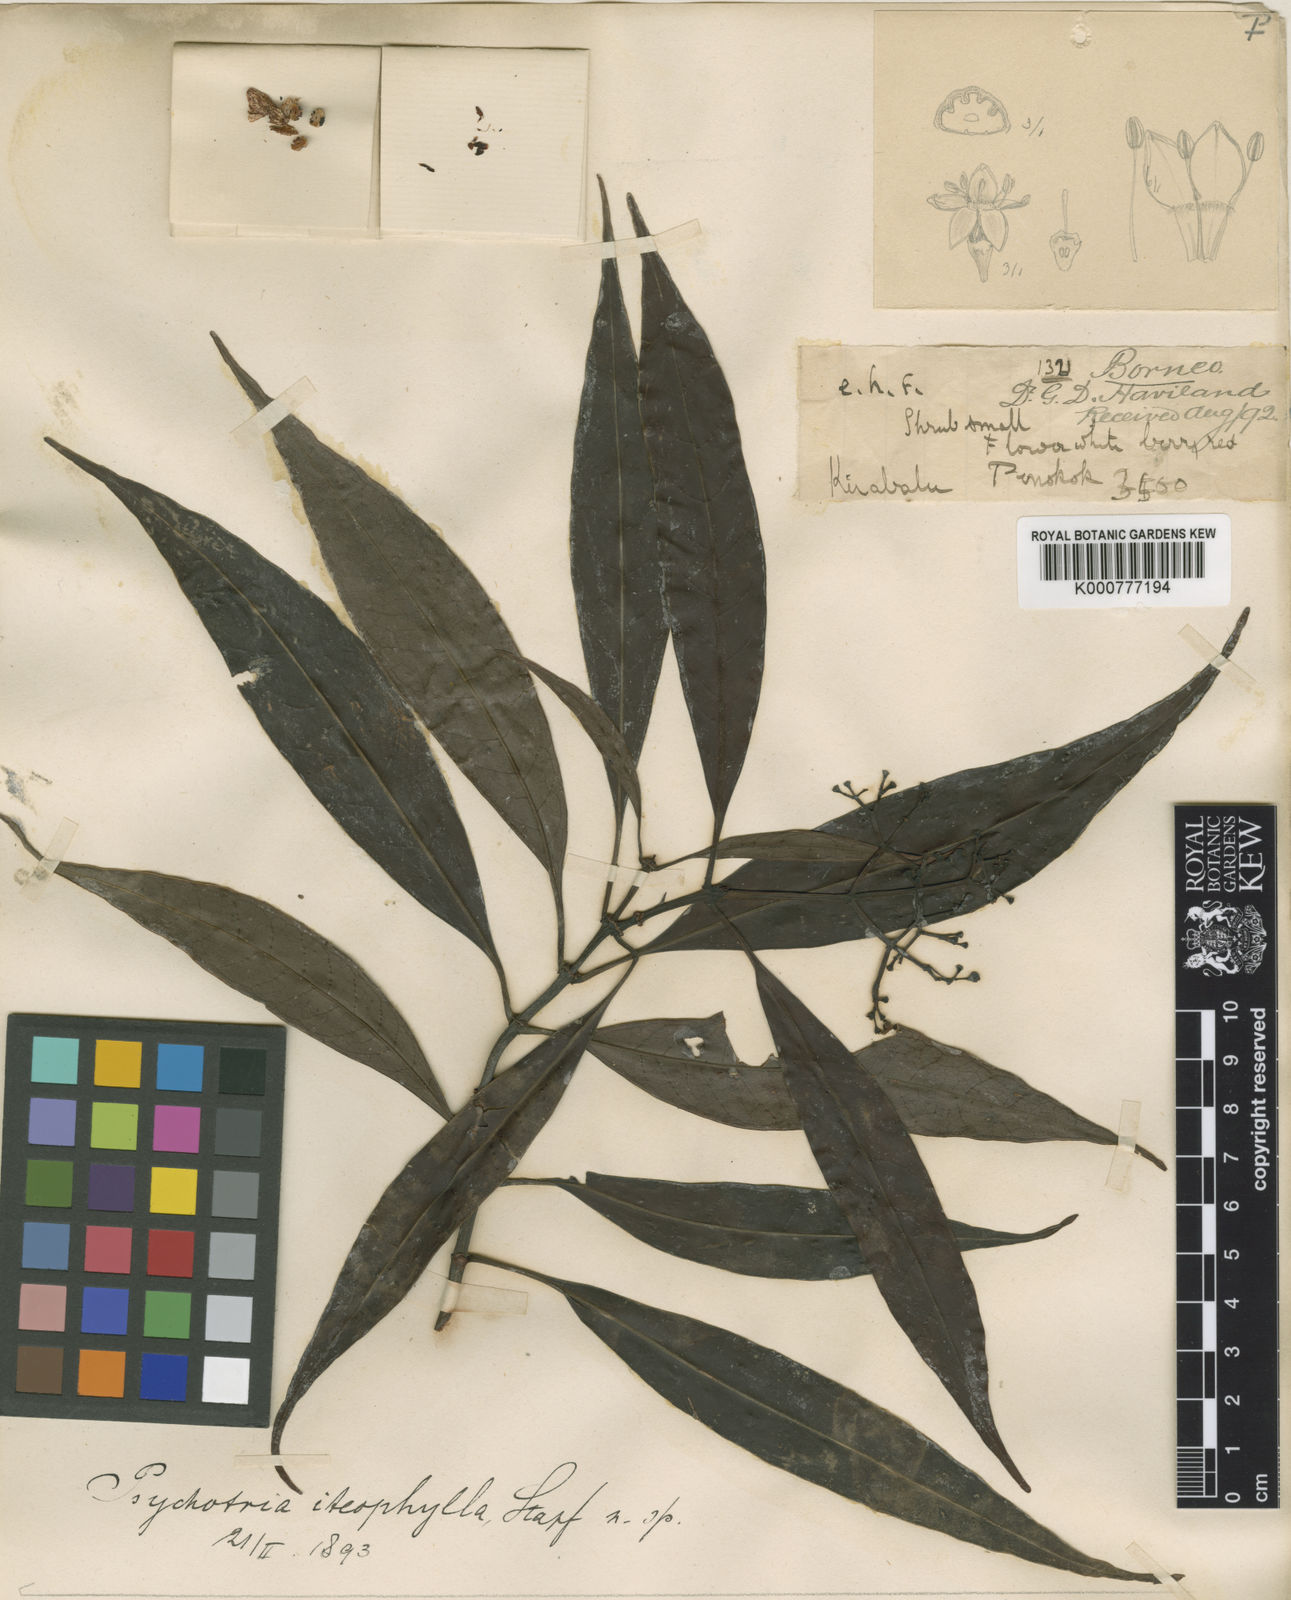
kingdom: Plantae
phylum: Tracheophyta
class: Magnoliopsida
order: Gentianales
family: Rubiaceae
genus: Psychotria
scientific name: Psychotria iteophylla
